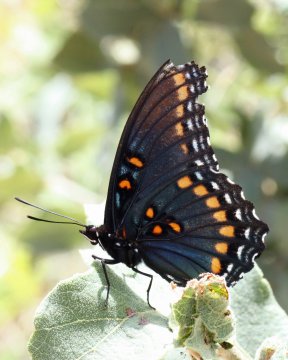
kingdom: Animalia
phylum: Arthropoda
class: Insecta
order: Lepidoptera
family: Nymphalidae
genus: Limenitis
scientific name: Limenitis arthemis
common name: Red-spotted Admiral
